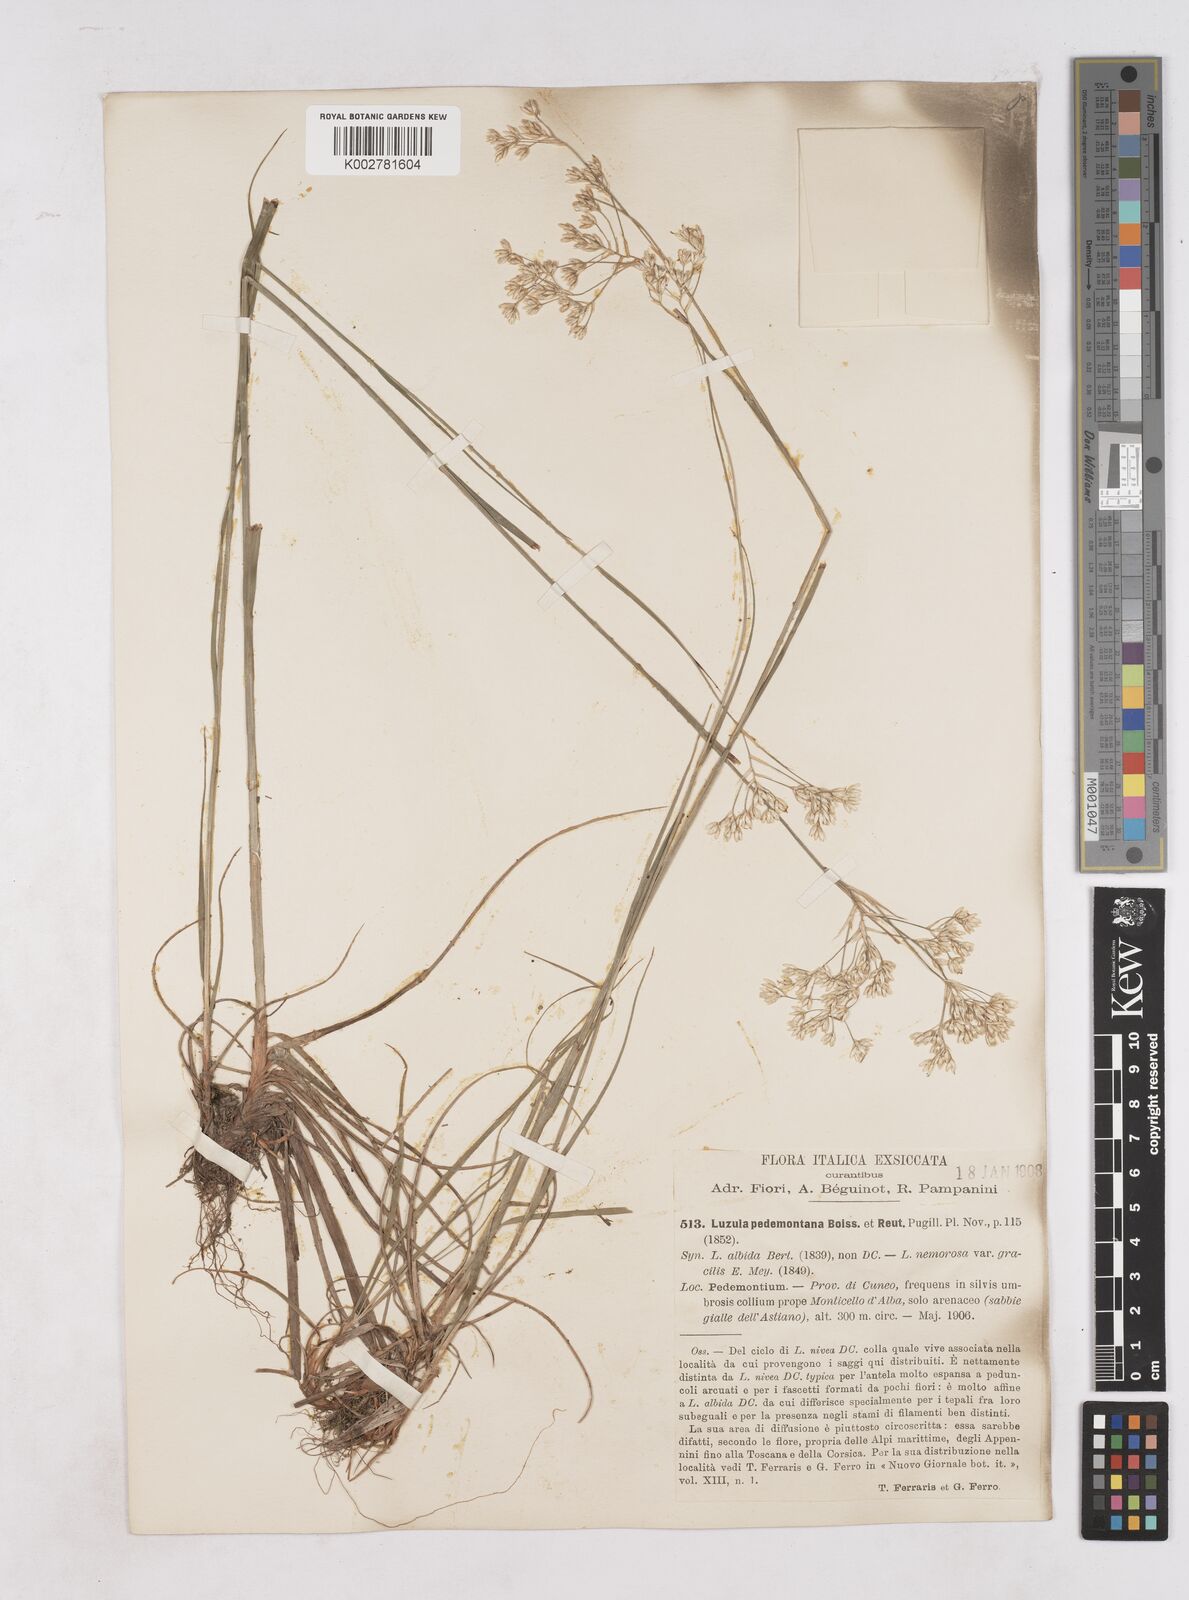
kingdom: Plantae
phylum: Tracheophyta
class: Liliopsida
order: Poales
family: Juncaceae
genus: Luzula
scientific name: Luzula pedemontana
